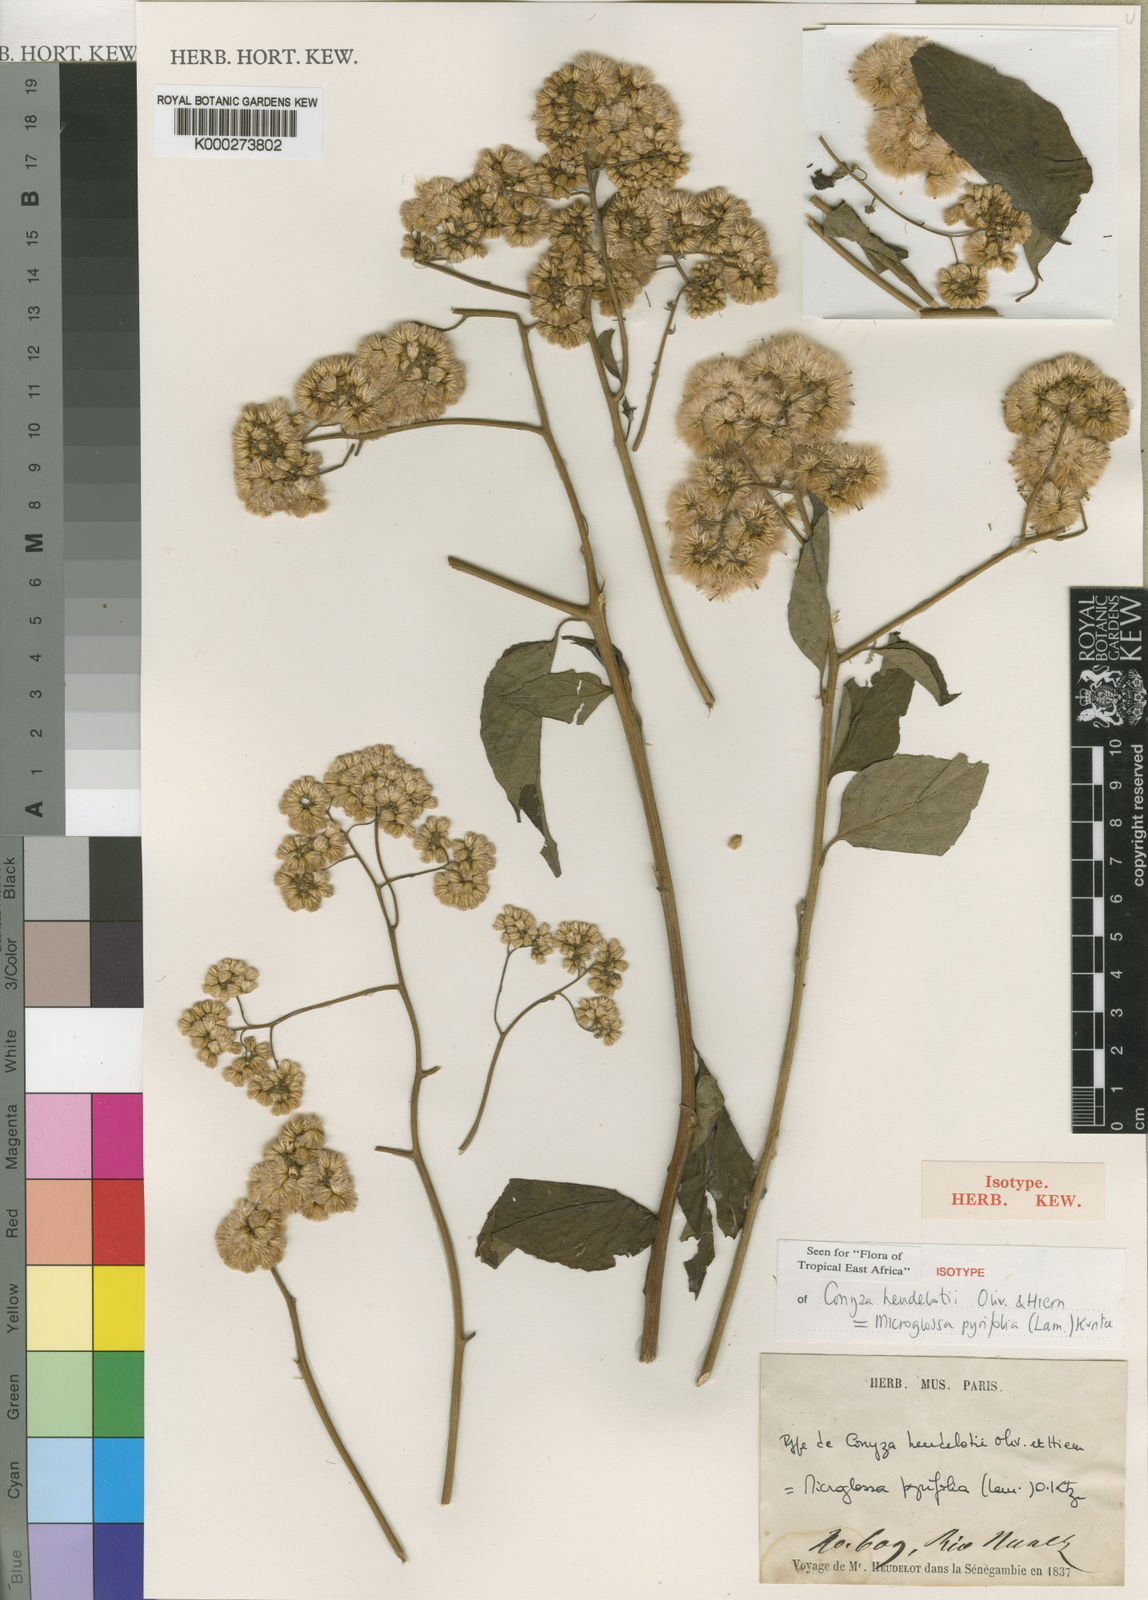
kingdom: Plantae
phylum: Tracheophyta
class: Magnoliopsida
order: Asterales
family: Asteraceae
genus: Microglossa
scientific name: Microglossa pyrifolia
